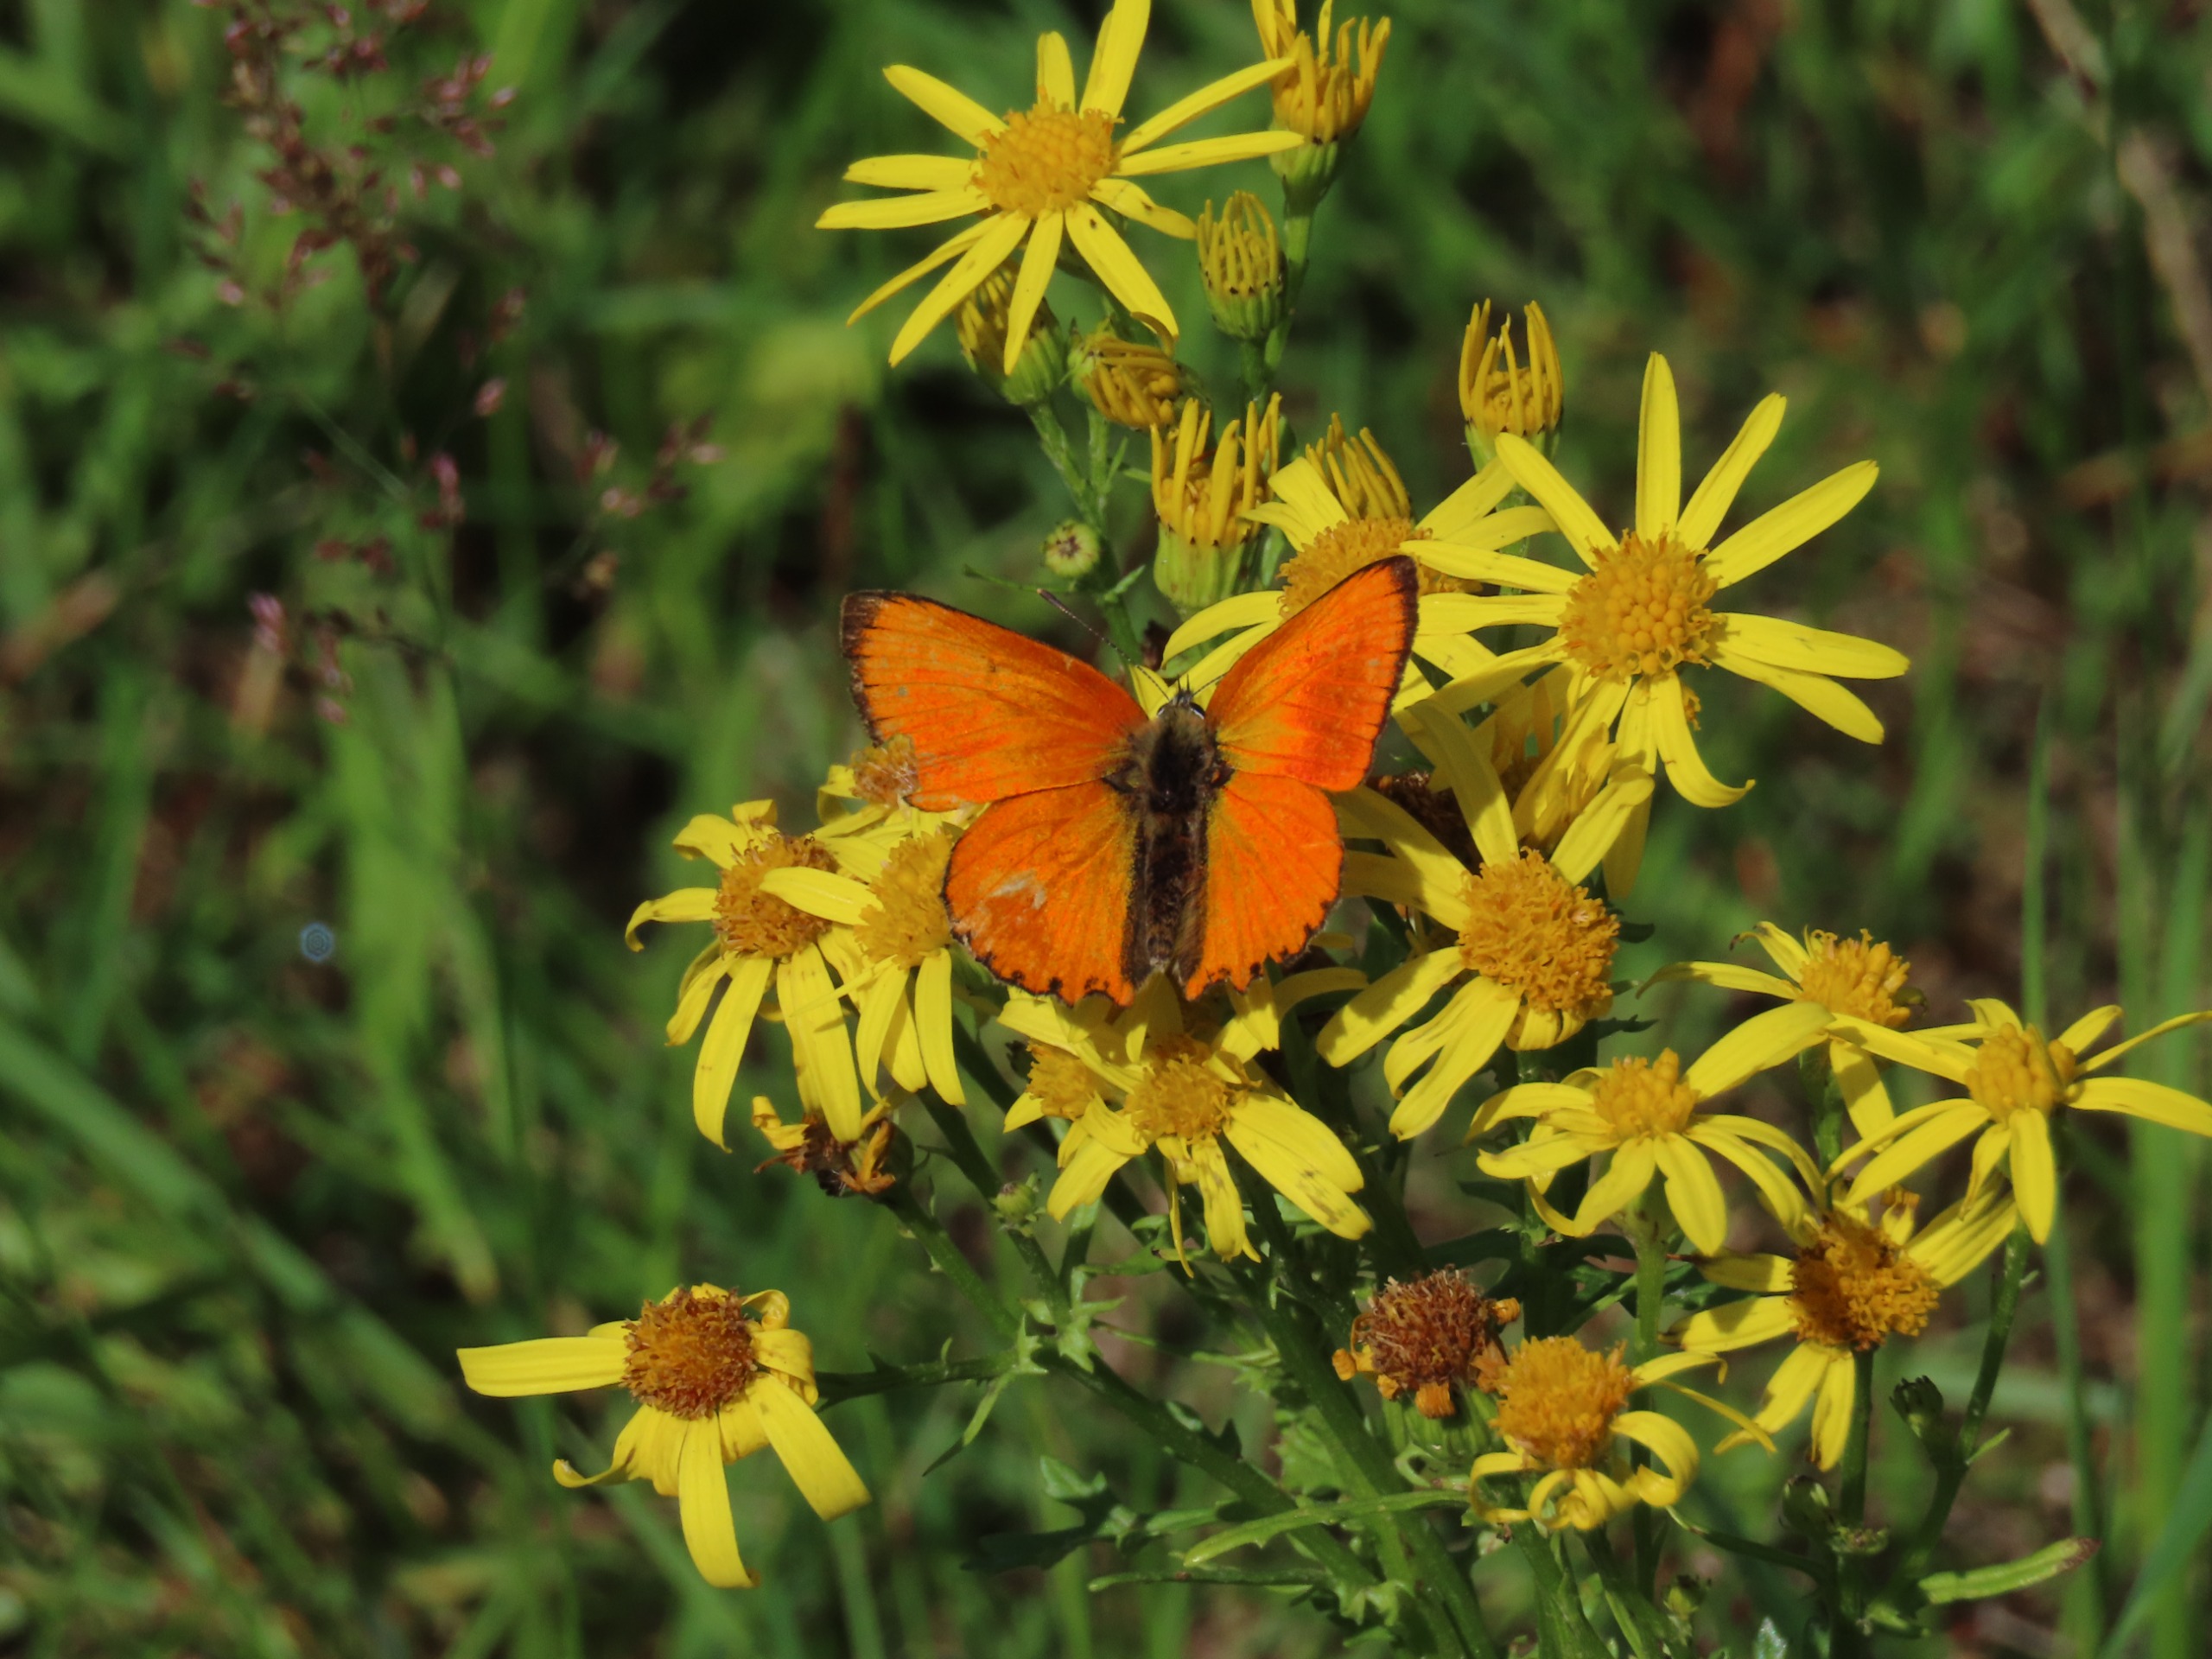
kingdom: Animalia
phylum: Arthropoda
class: Insecta
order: Lepidoptera
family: Lycaenidae
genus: Lycaena
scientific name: Lycaena virgaureae
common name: Dukatsommerfugl
